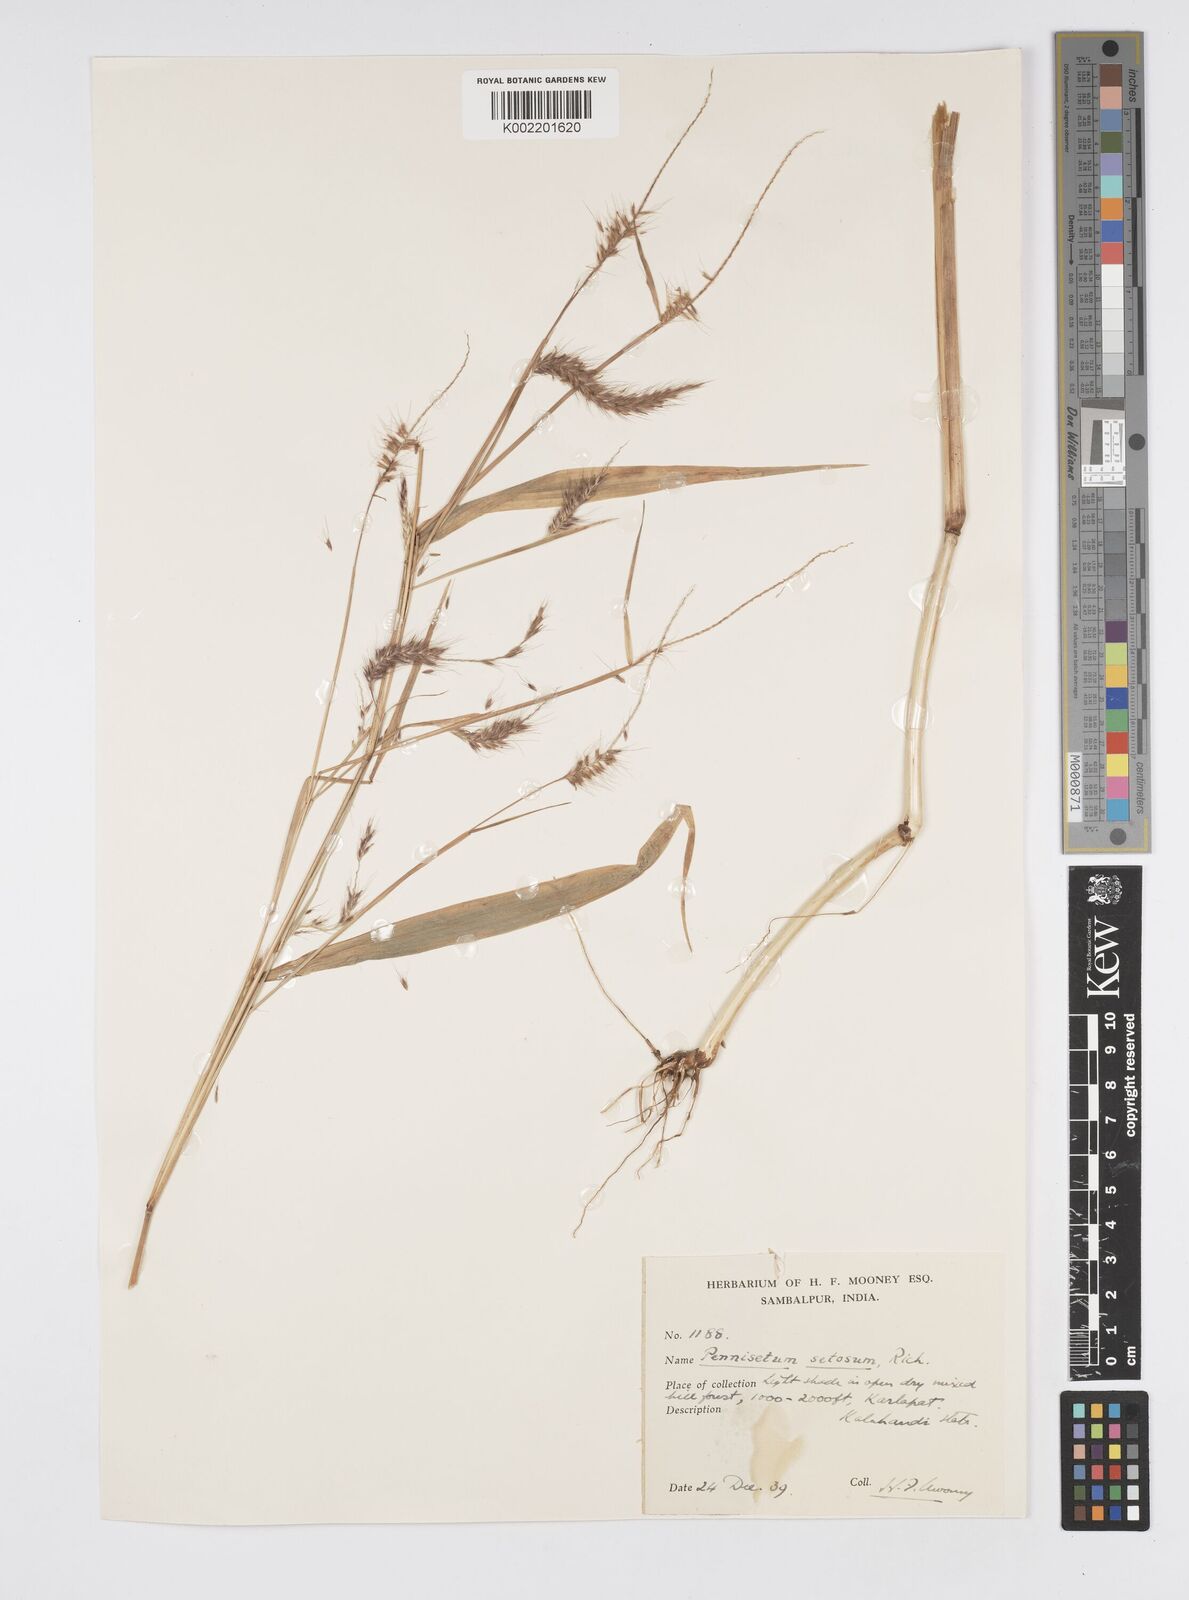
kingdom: Plantae
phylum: Tracheophyta
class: Liliopsida
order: Poales
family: Poaceae
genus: Setaria
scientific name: Setaria parviflora
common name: Knotroot bristle-grass
